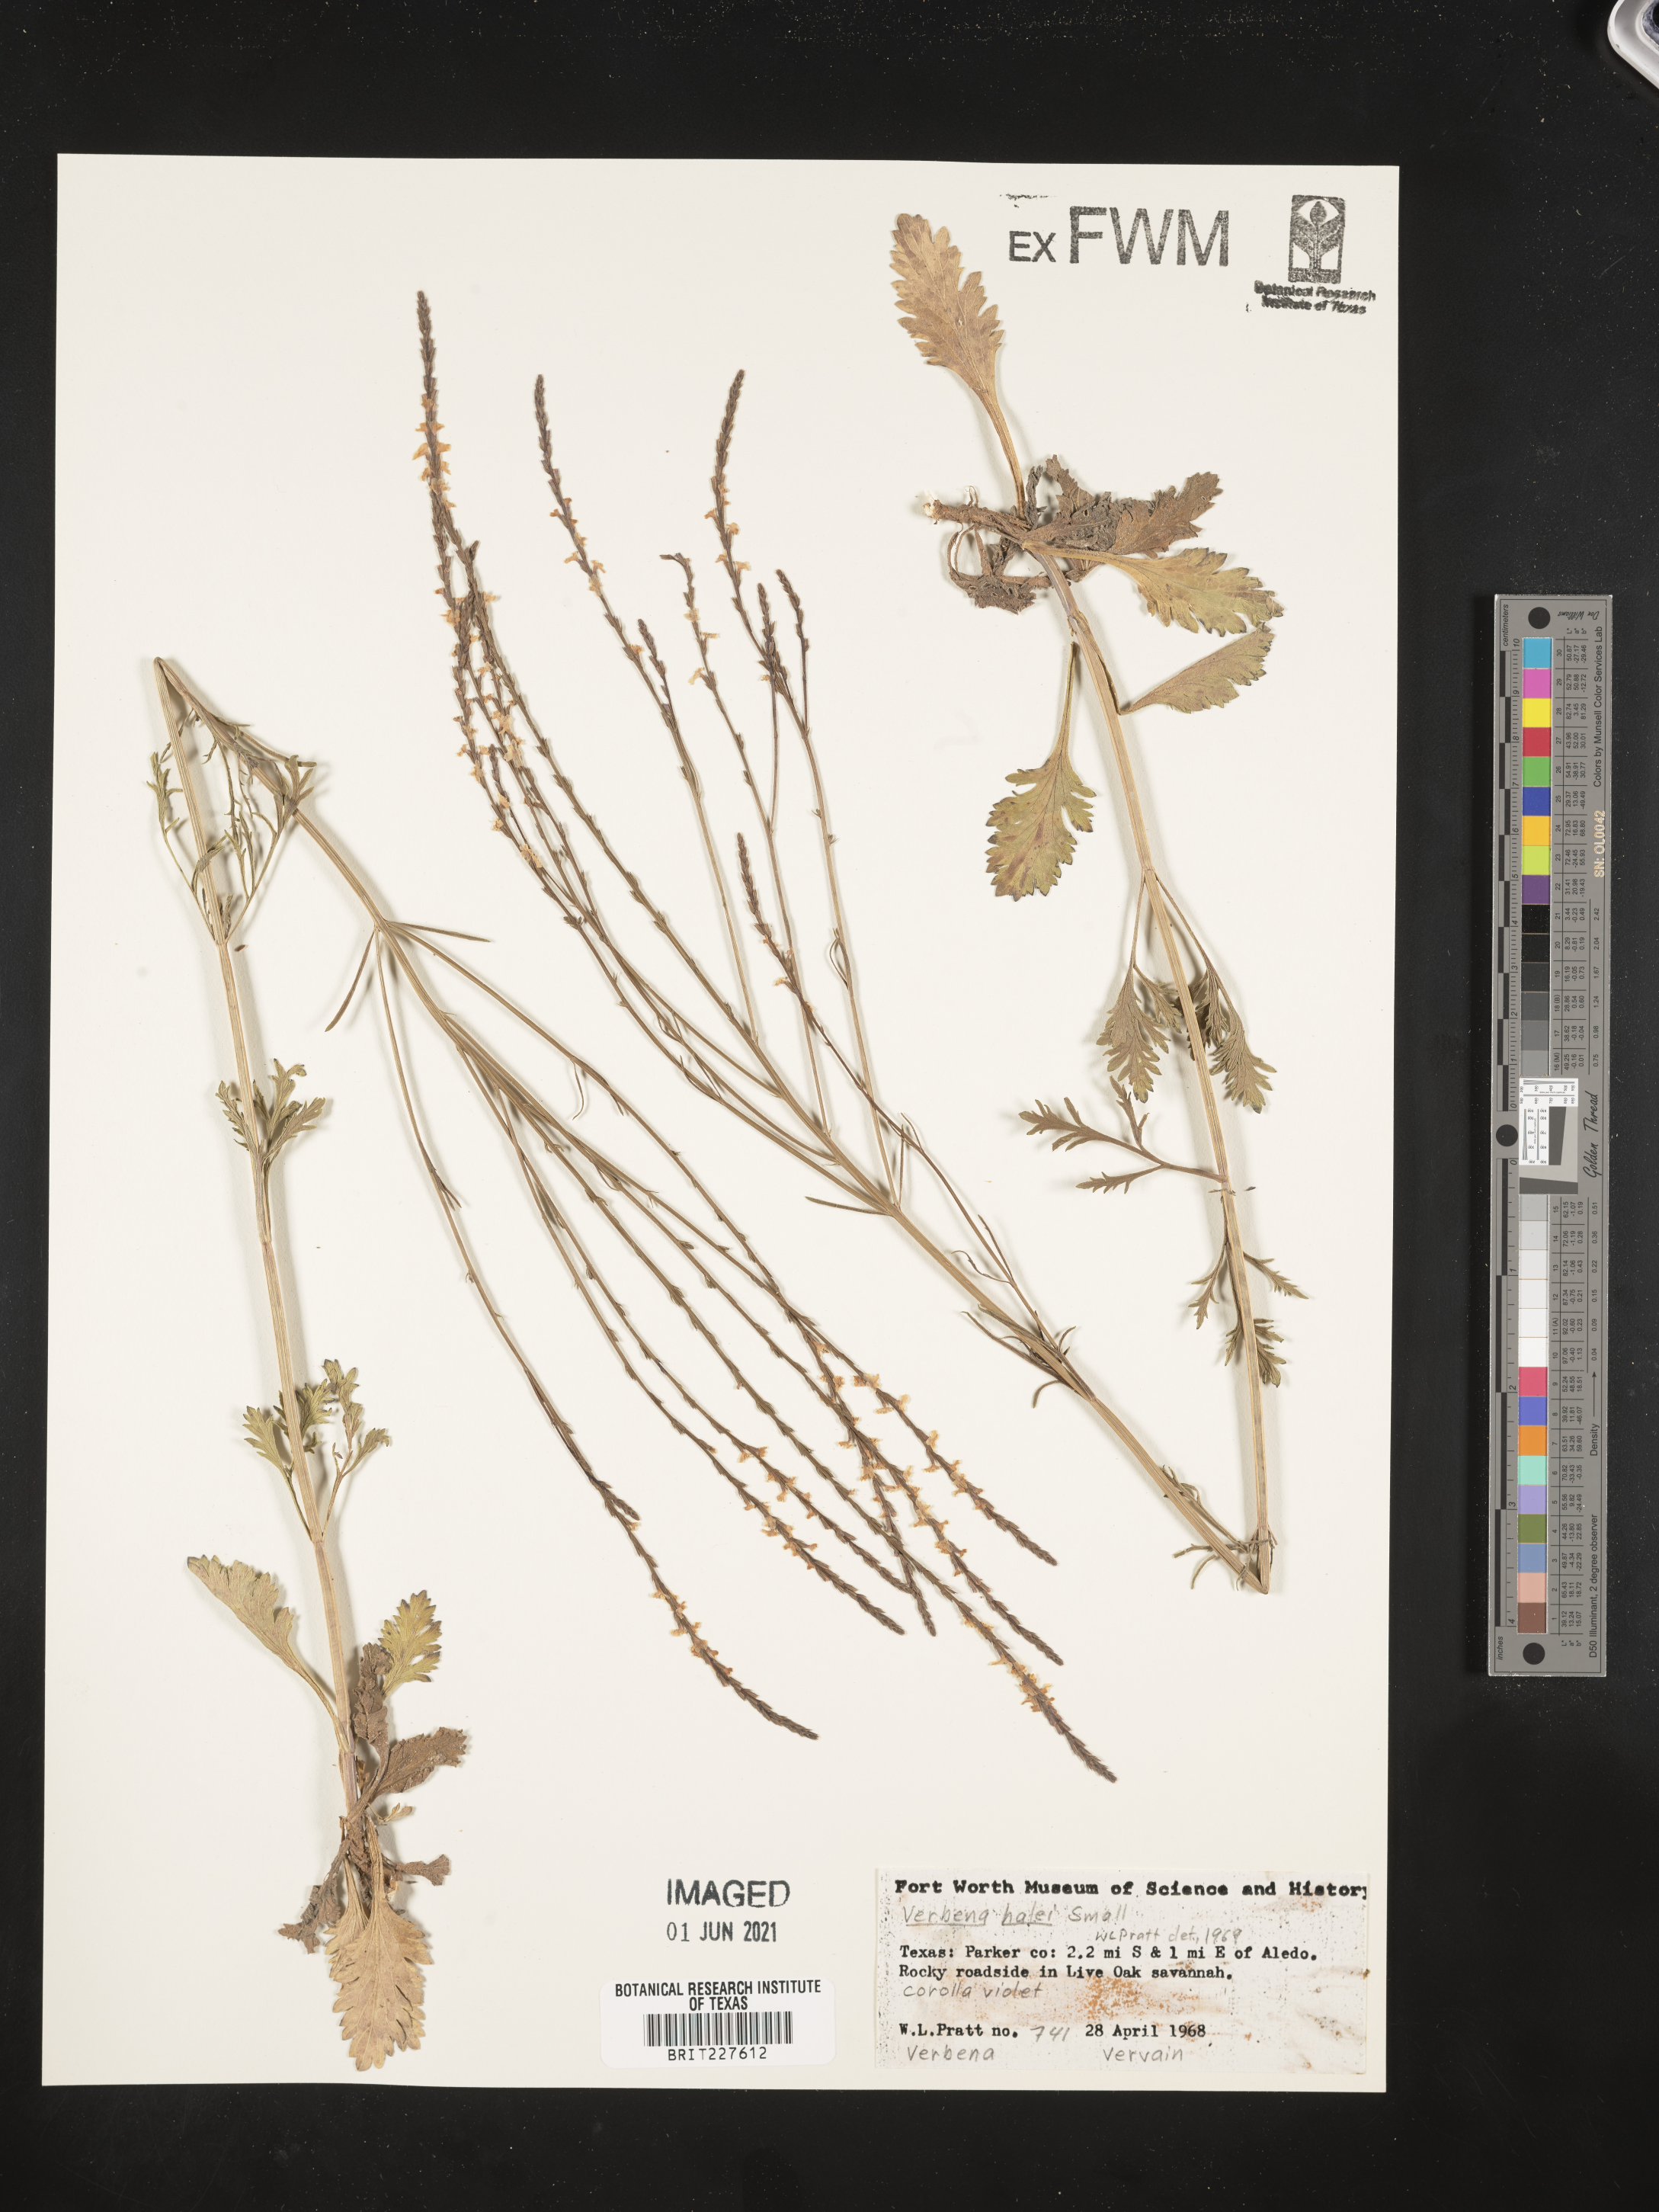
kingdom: Plantae
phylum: Tracheophyta
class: Magnoliopsida
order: Lamiales
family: Verbenaceae
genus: Verbena
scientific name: Verbena halei
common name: Texas vervain
